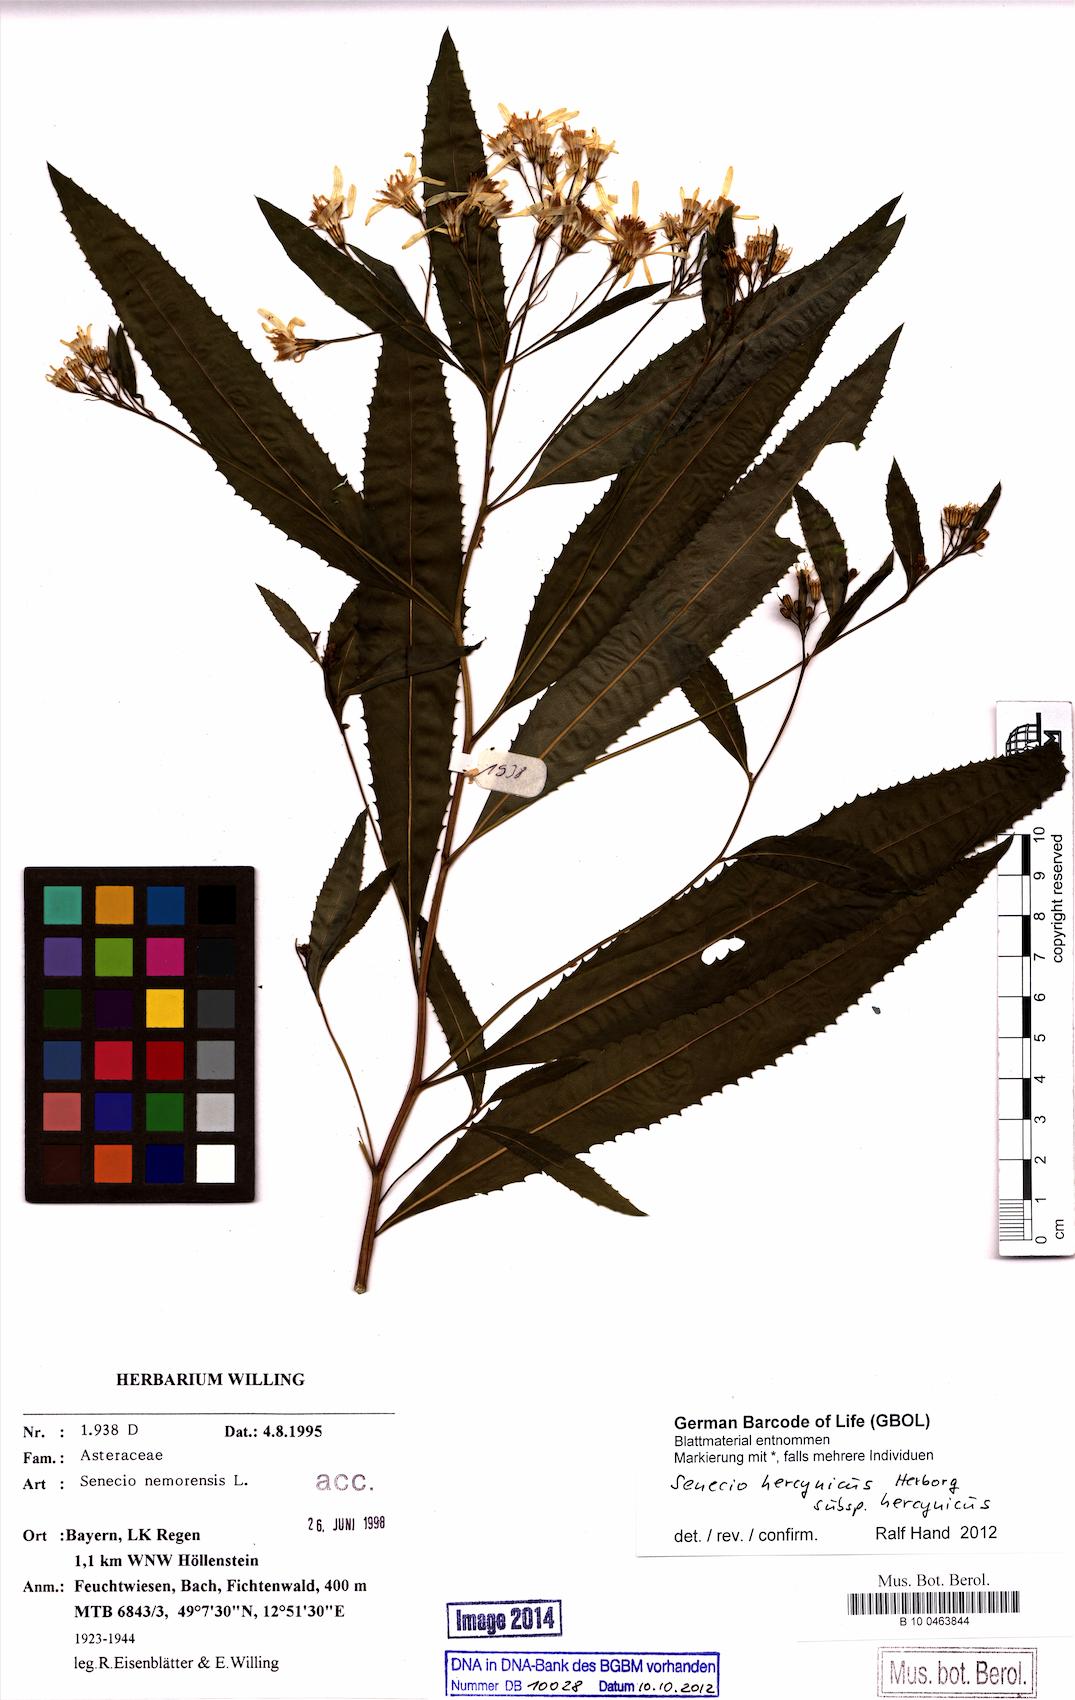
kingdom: Plantae
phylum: Tracheophyta
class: Magnoliopsida
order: Asterales
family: Asteraceae
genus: Senecio
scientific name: Senecio hercynicus
